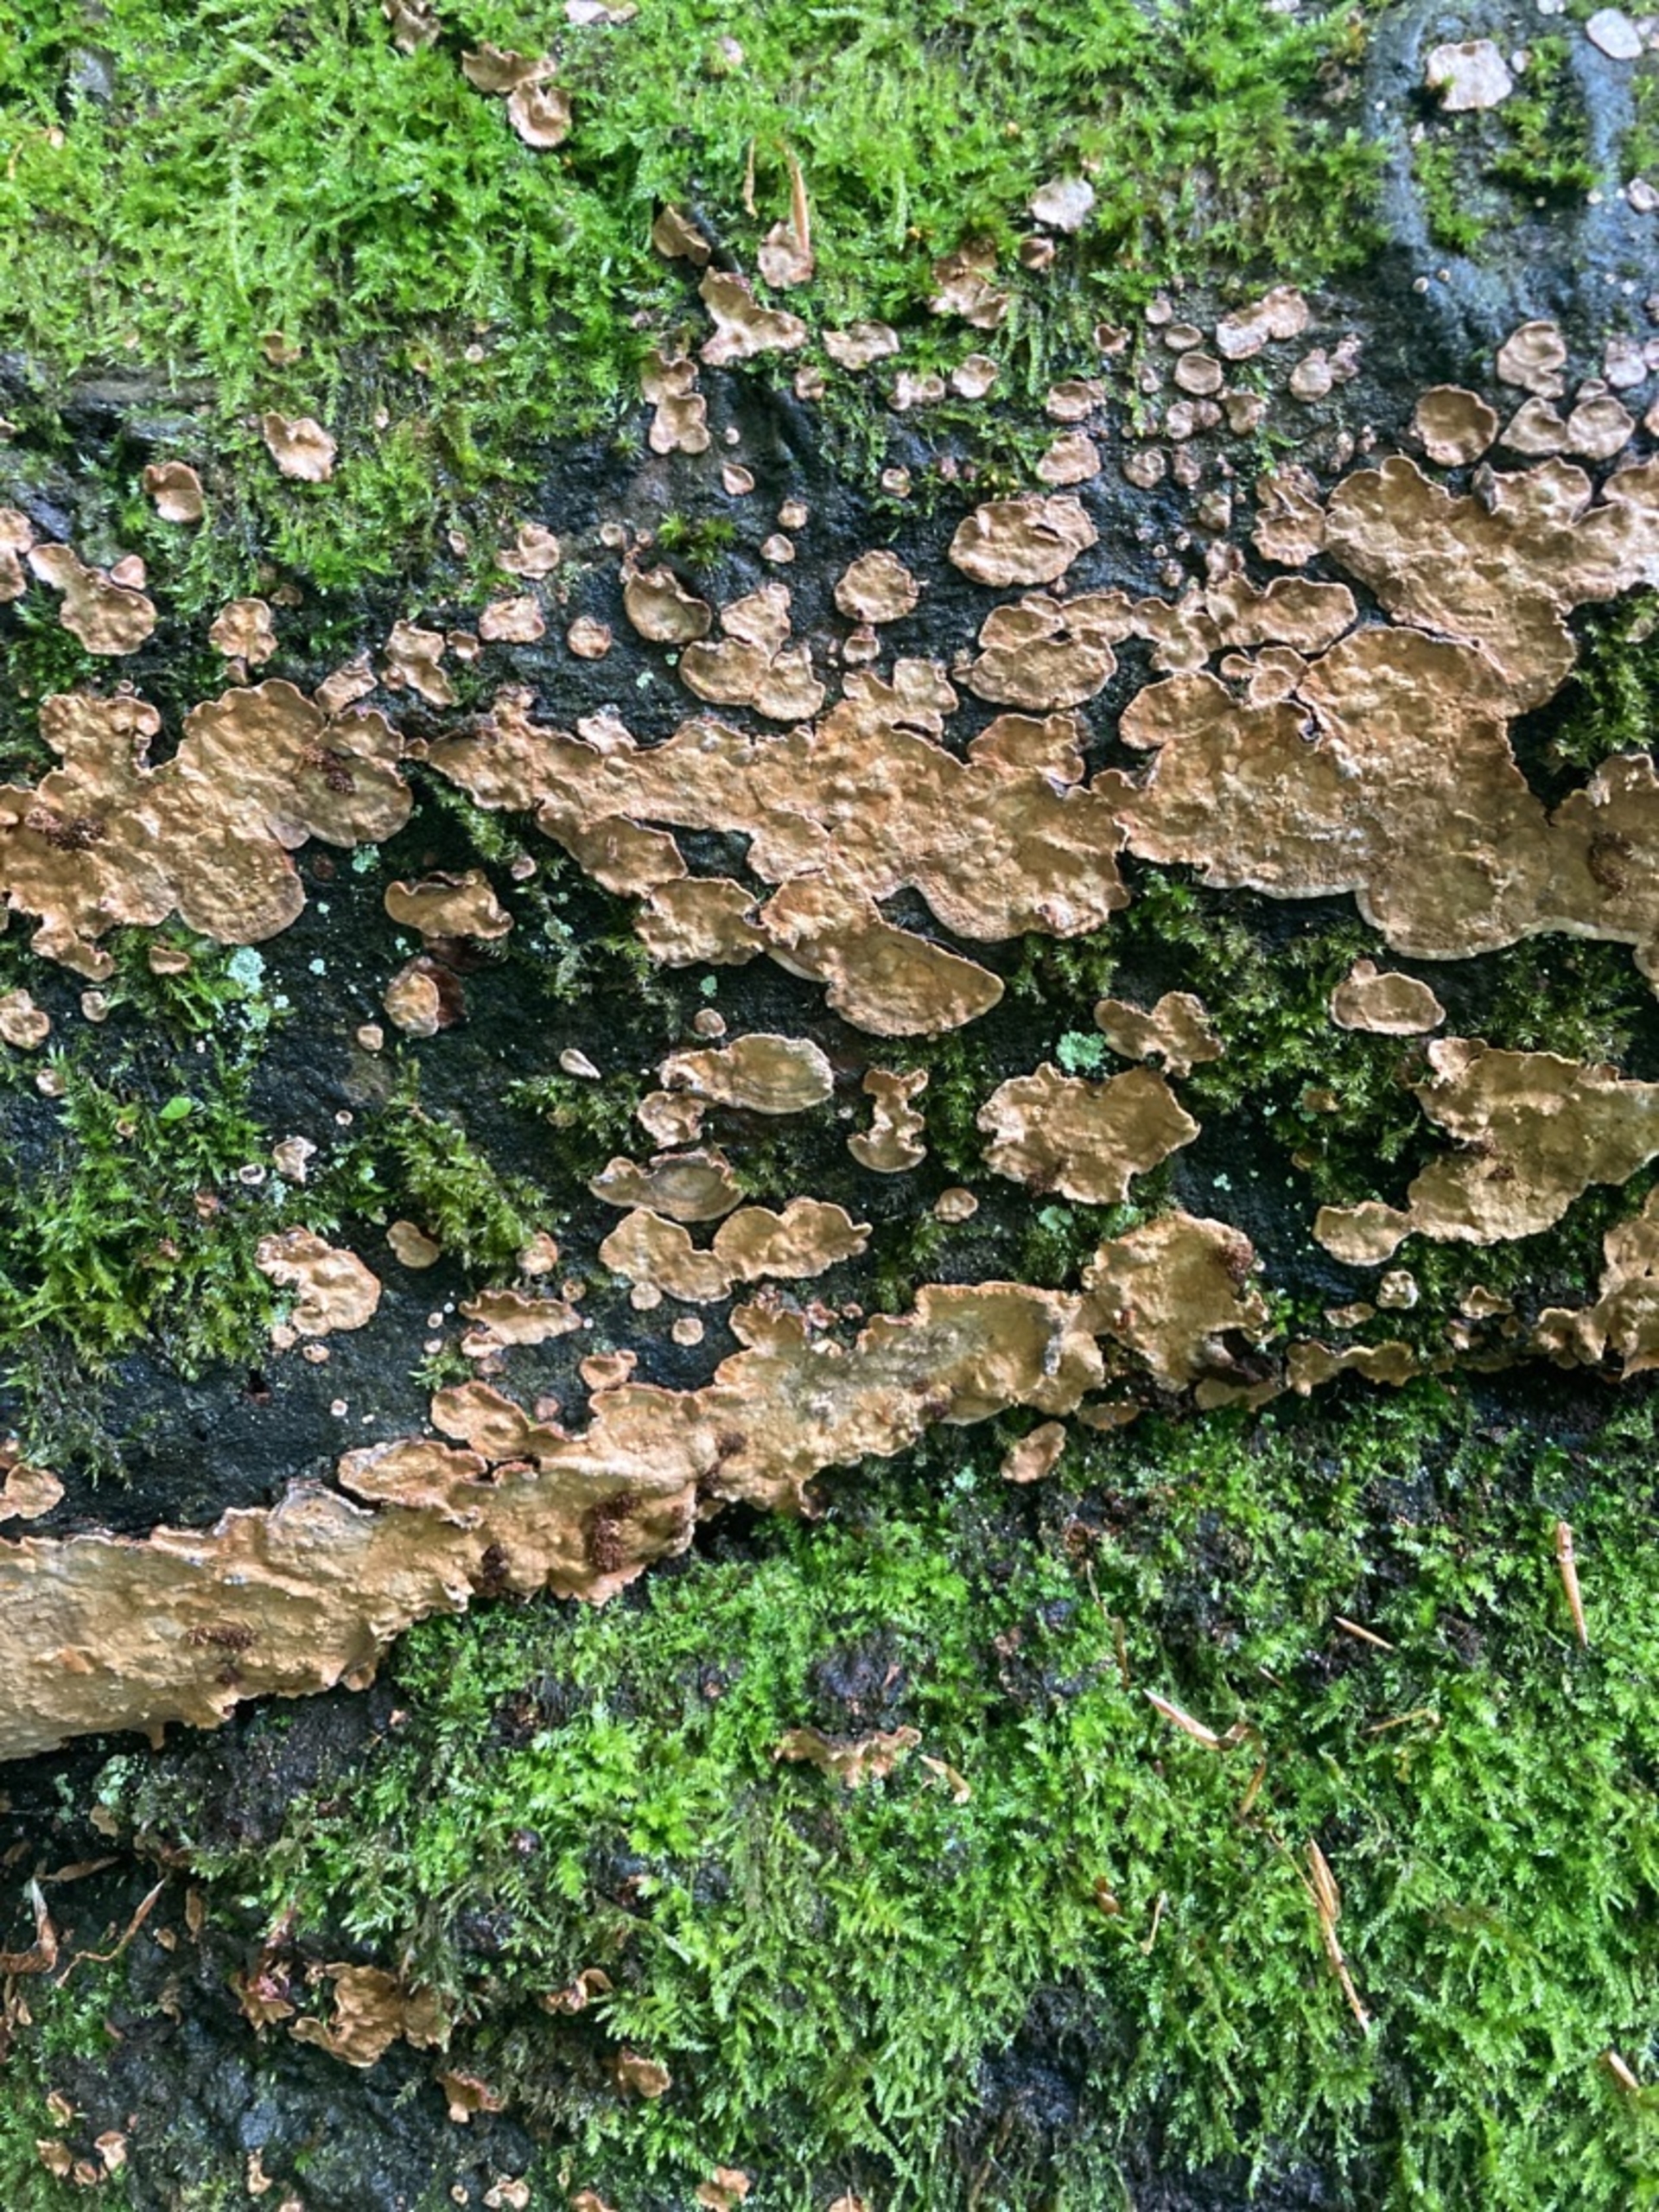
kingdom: Fungi
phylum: Basidiomycota
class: Agaricomycetes
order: Russulales
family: Stereaceae
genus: Stereum
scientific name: Stereum rugosum
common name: Rynket lædersvamp
